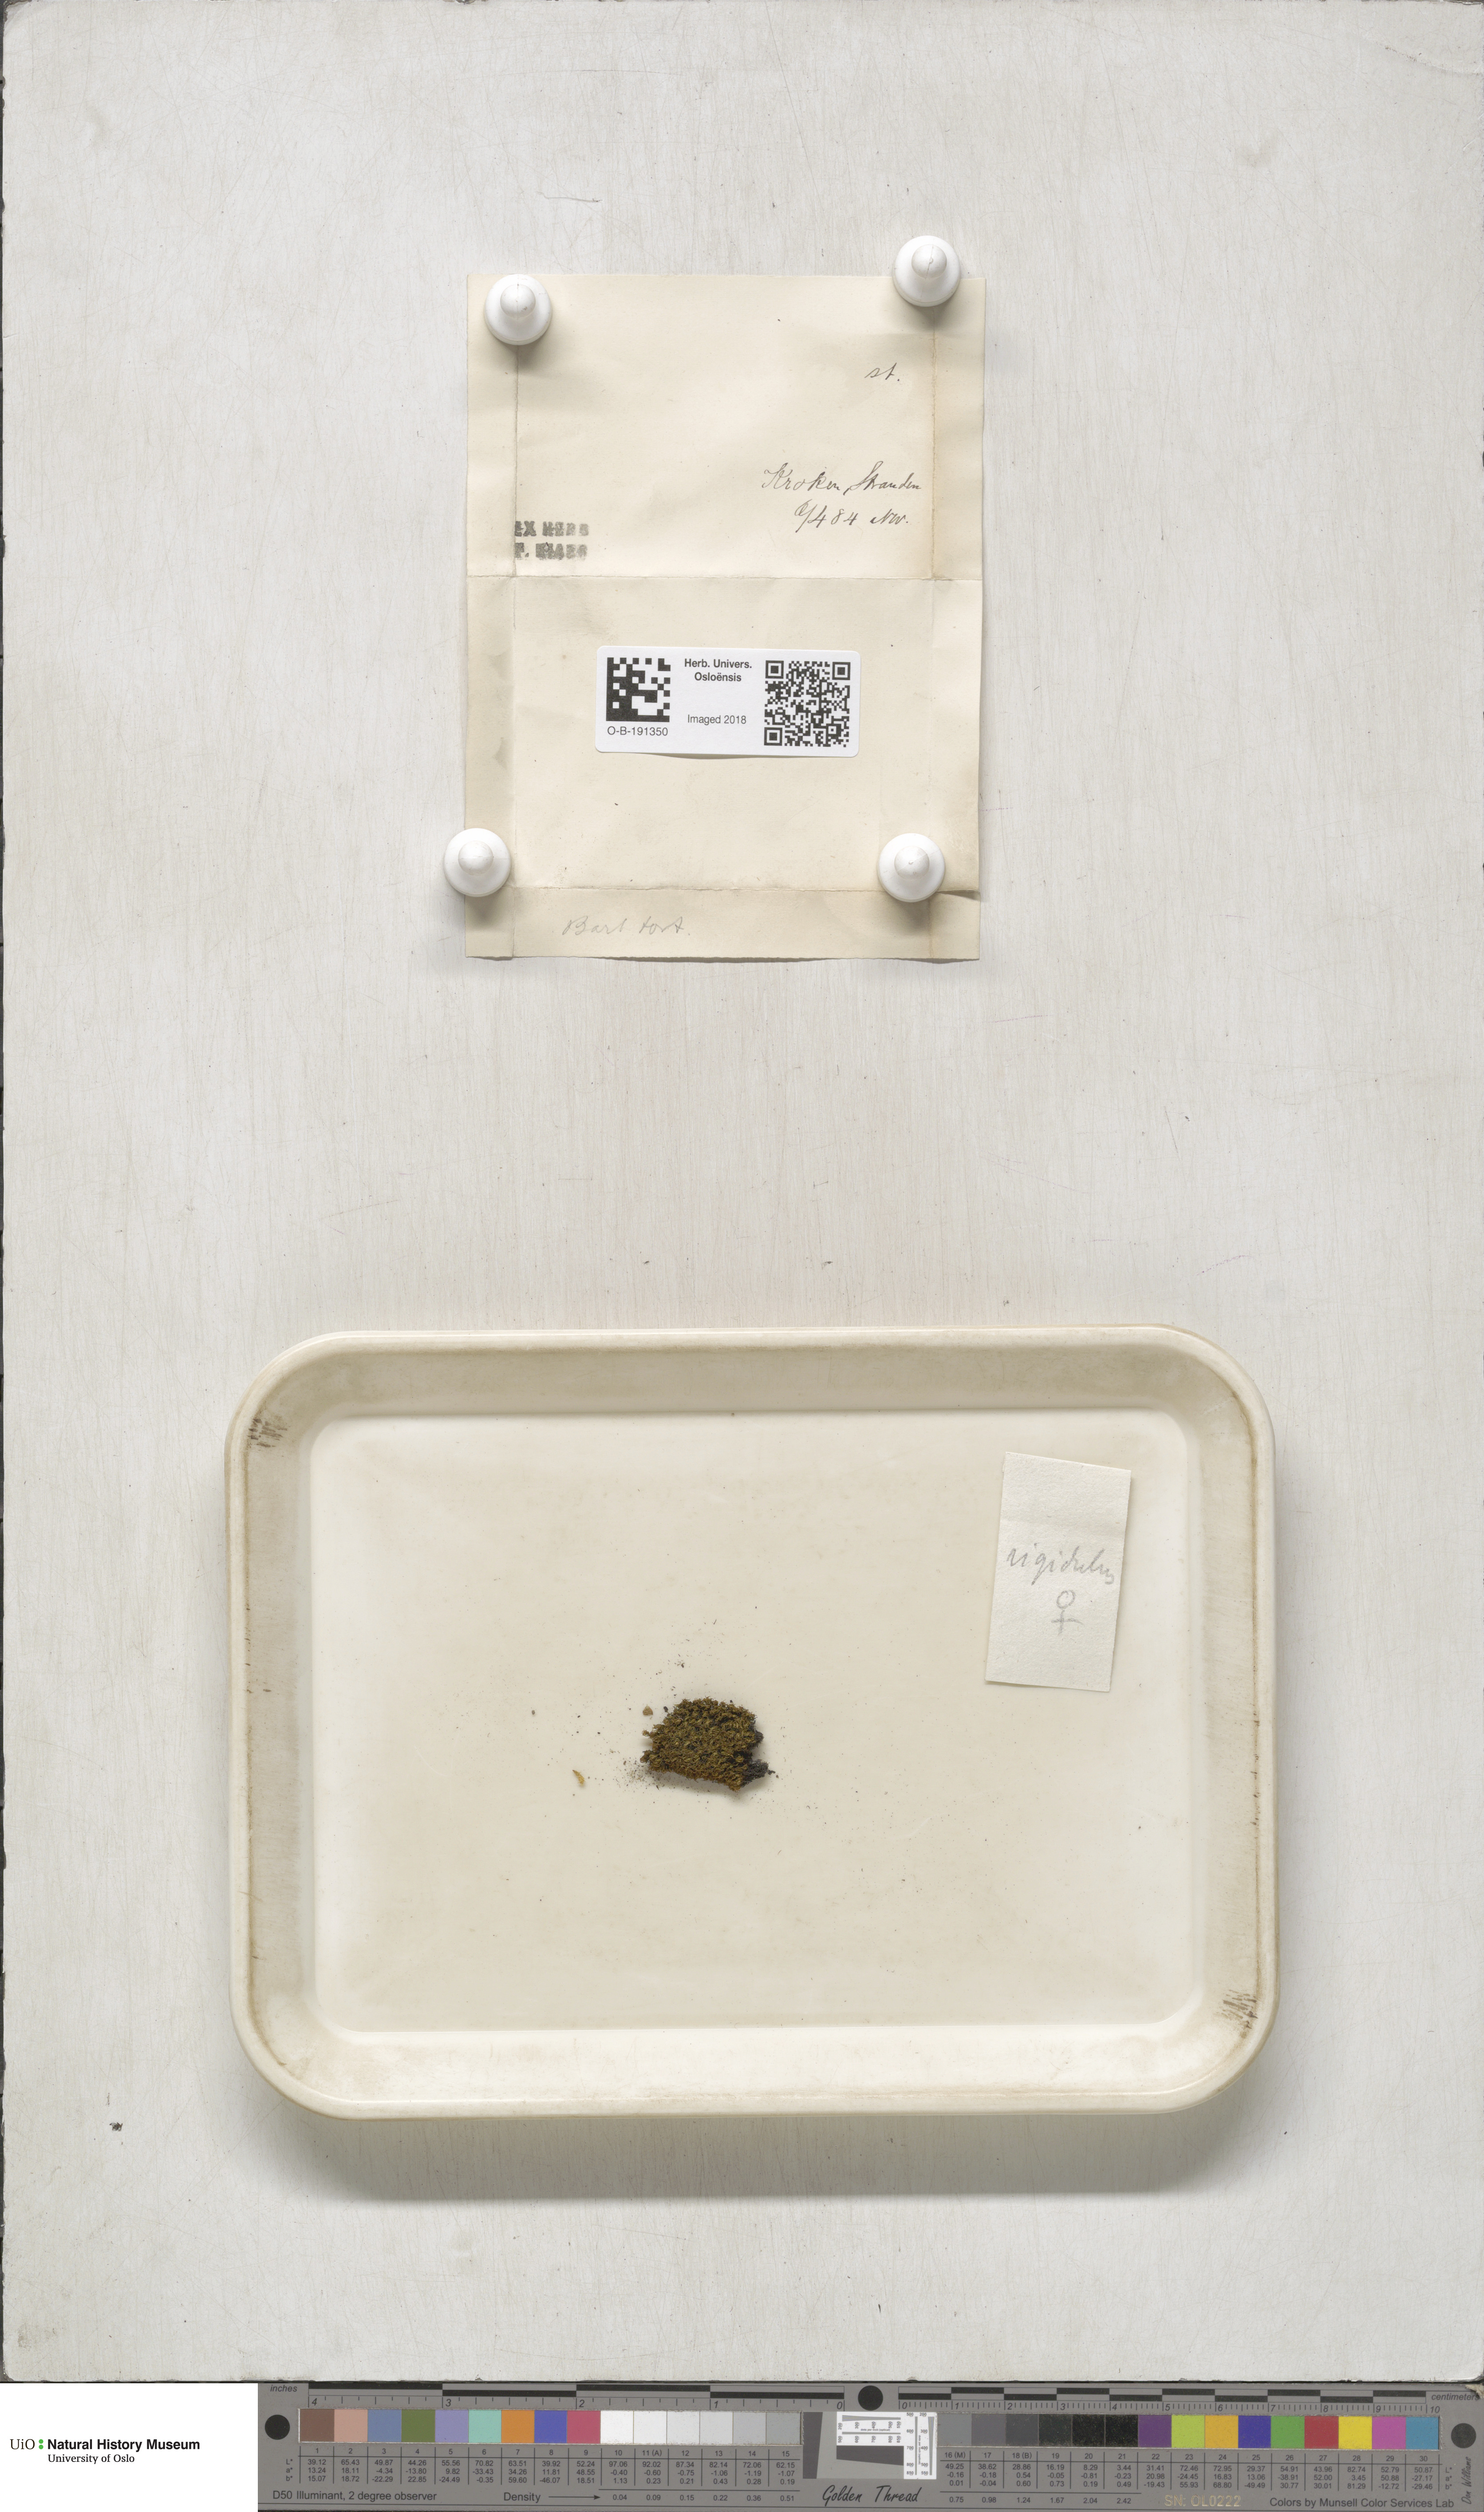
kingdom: Plantae
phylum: Bryophyta
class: Bryopsida
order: Pottiales
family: Pottiaceae
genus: Tortella
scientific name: Tortella tortuosa
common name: Frizzled crisp moss
